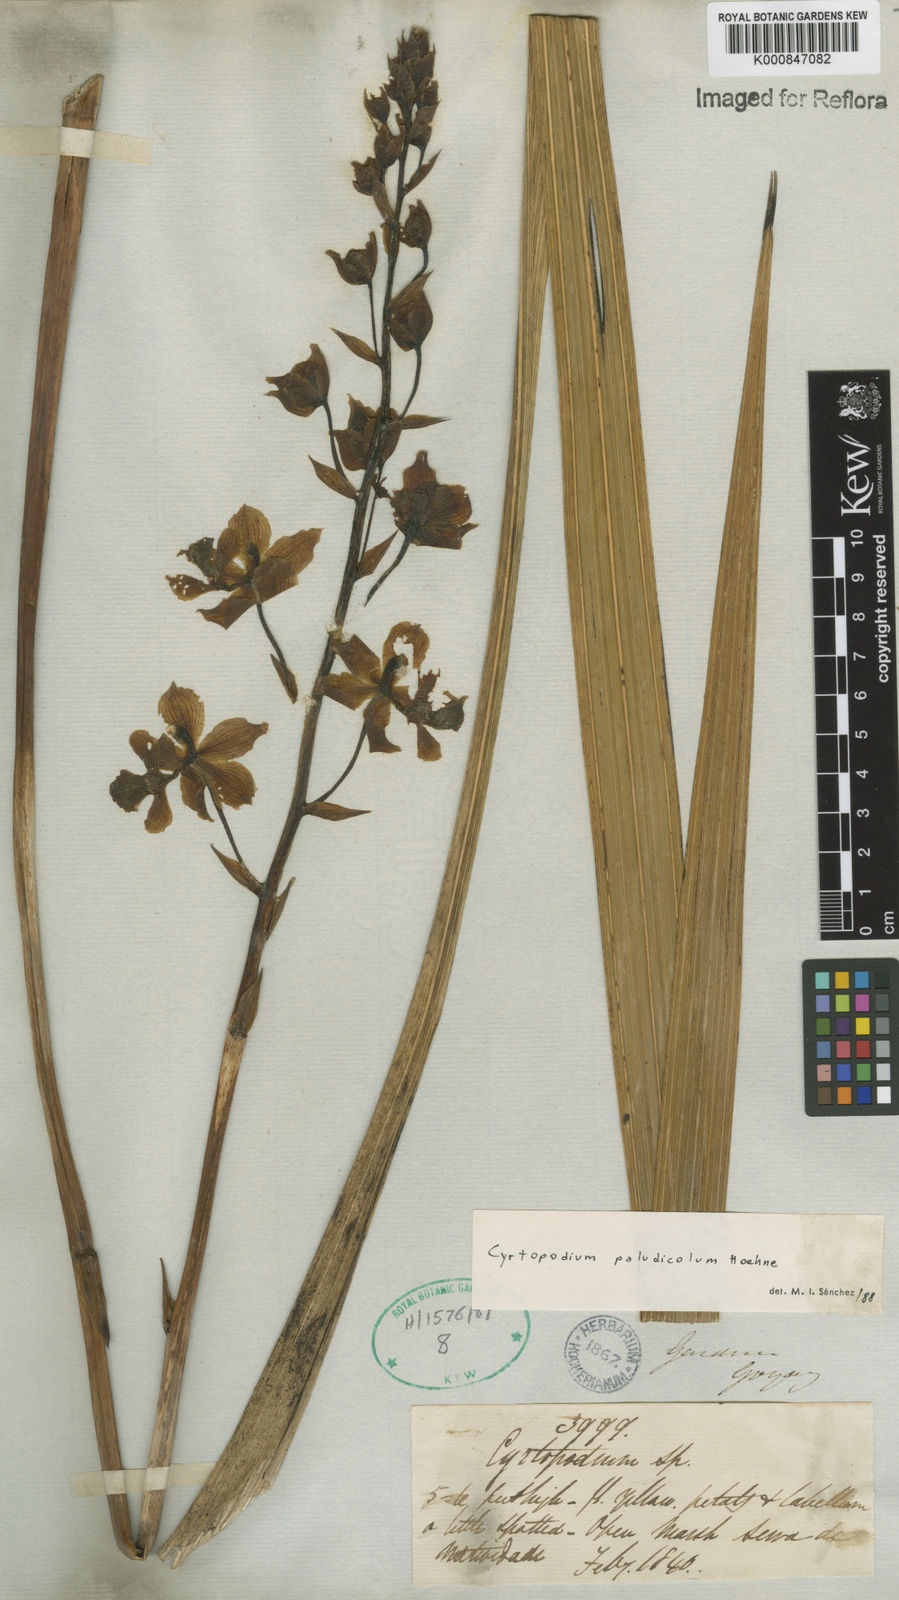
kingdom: Plantae
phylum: Tracheophyta
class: Liliopsida
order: Asparagales
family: Orchidaceae
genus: Cyrtopodium
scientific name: Cyrtopodium paludicola
